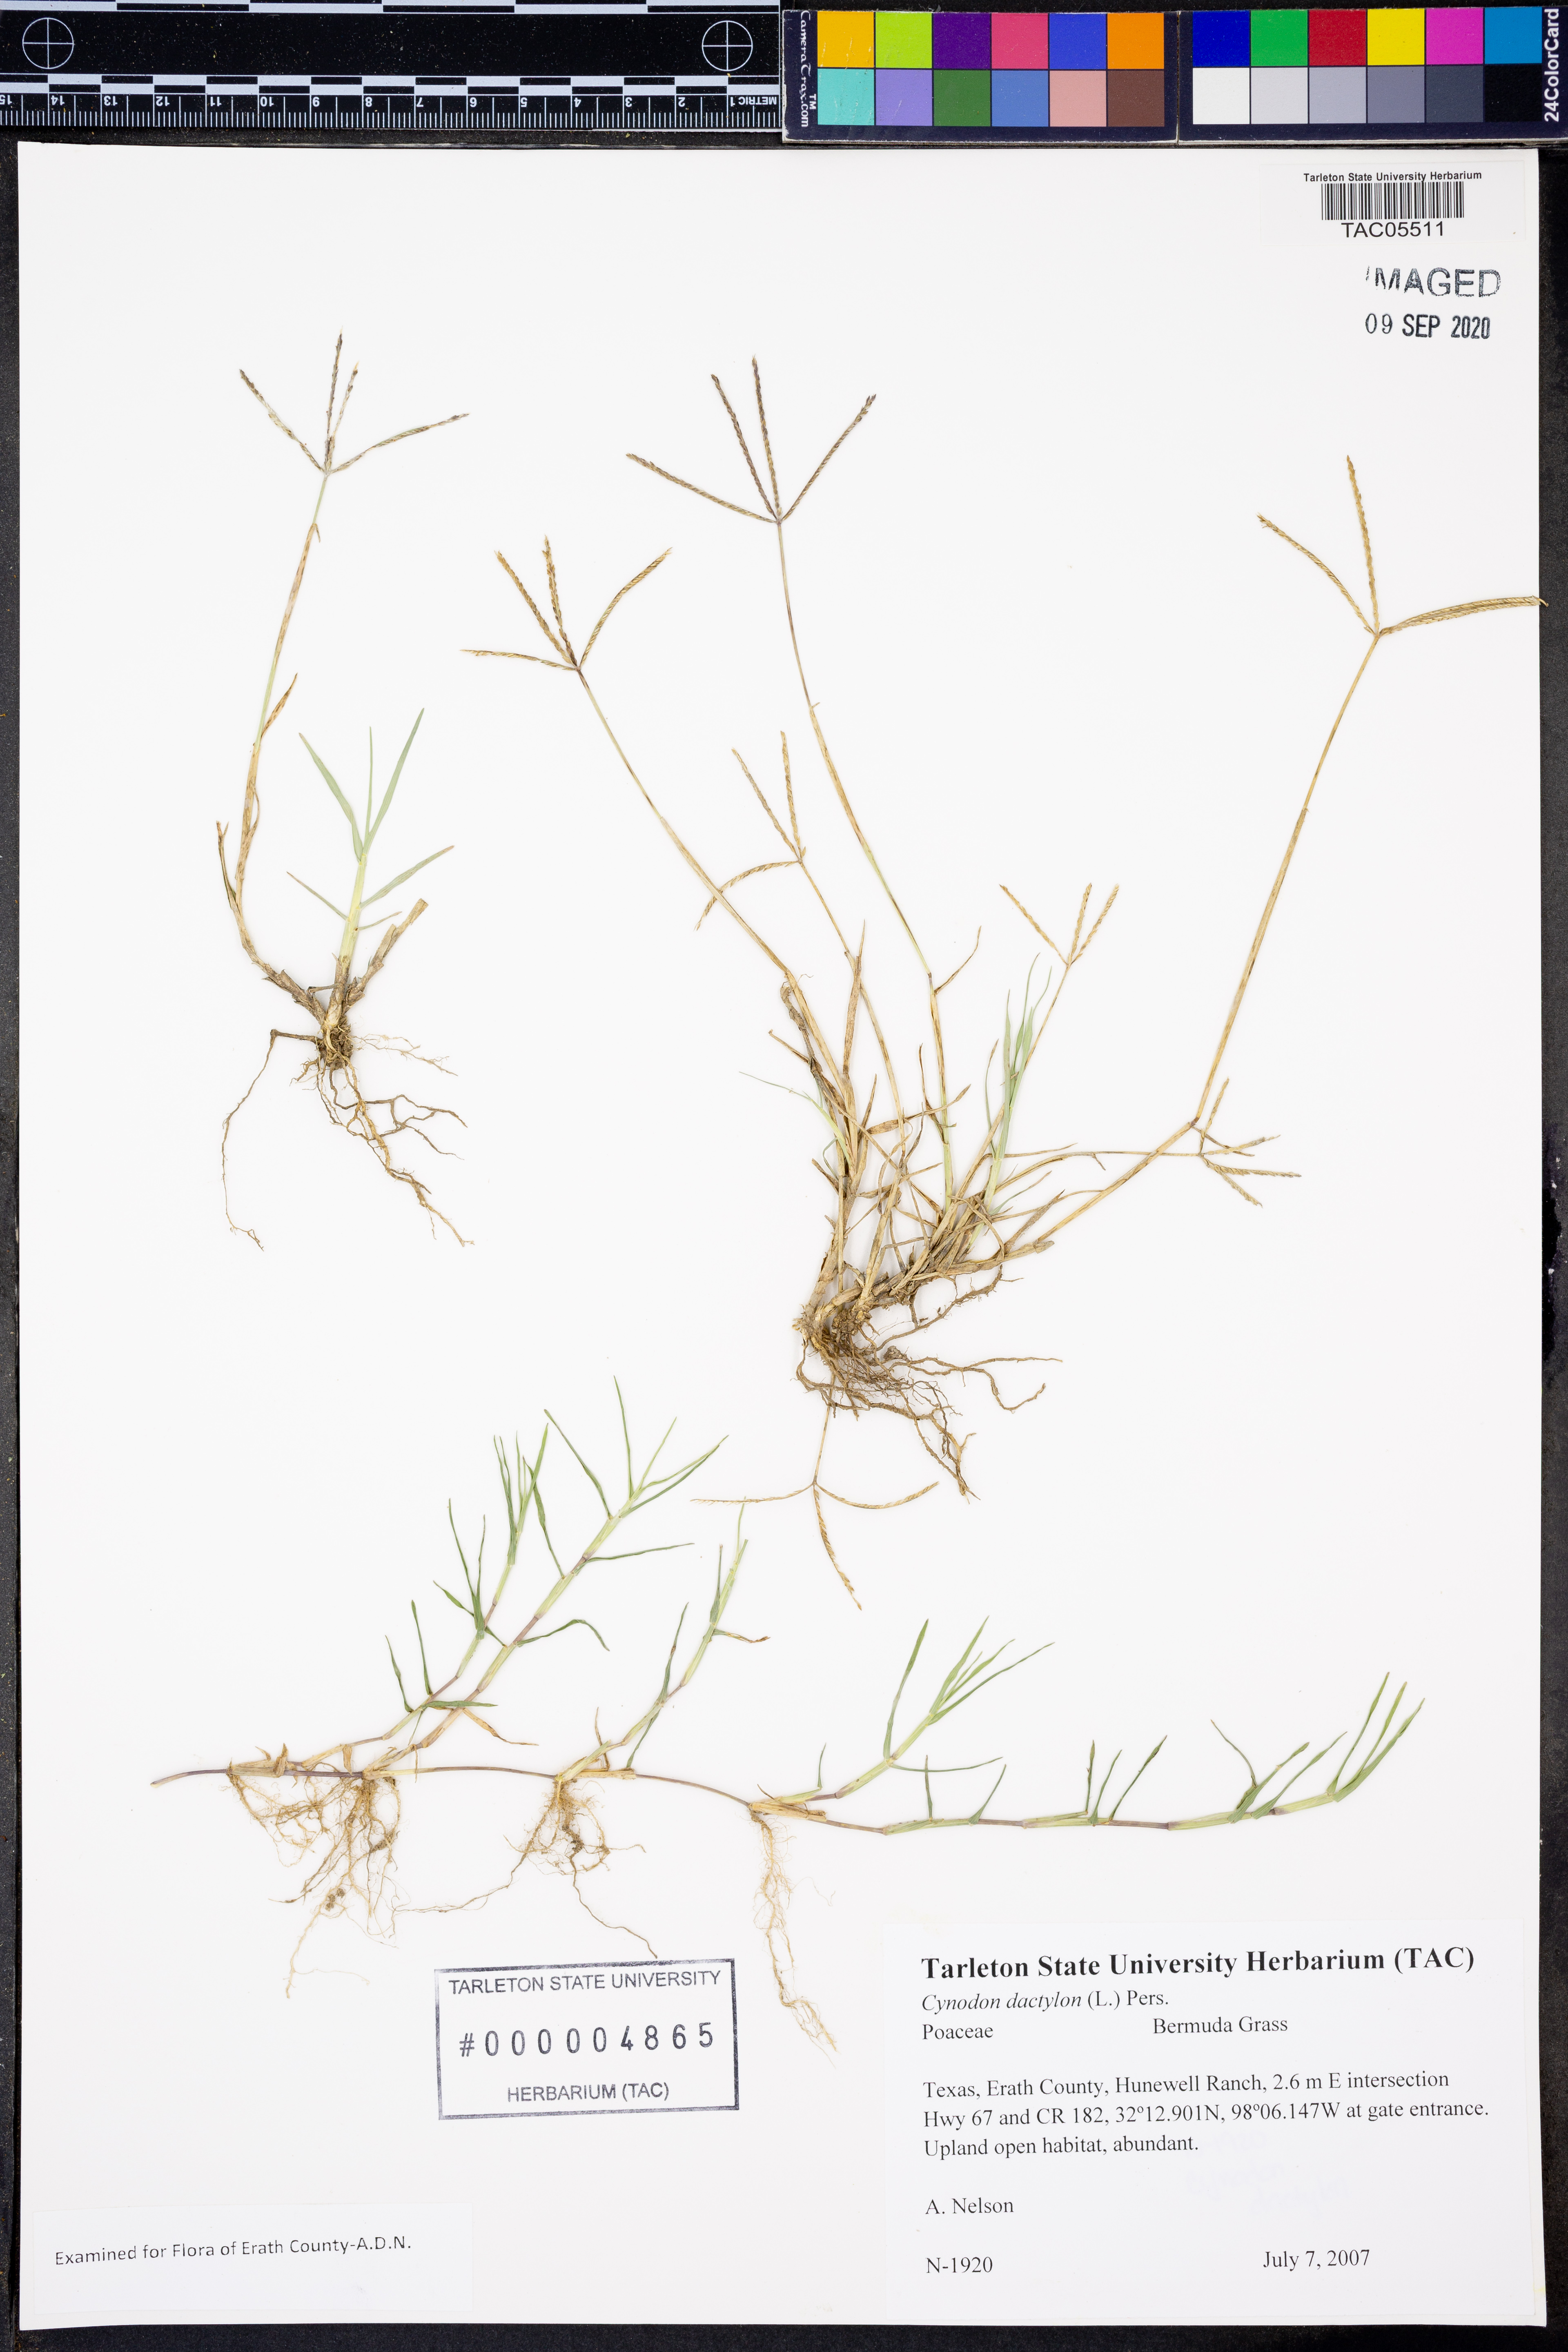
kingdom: Plantae
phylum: Tracheophyta
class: Liliopsida
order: Poales
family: Poaceae
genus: Cynodon
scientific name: Cynodon dactylon
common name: Bermuda grass
